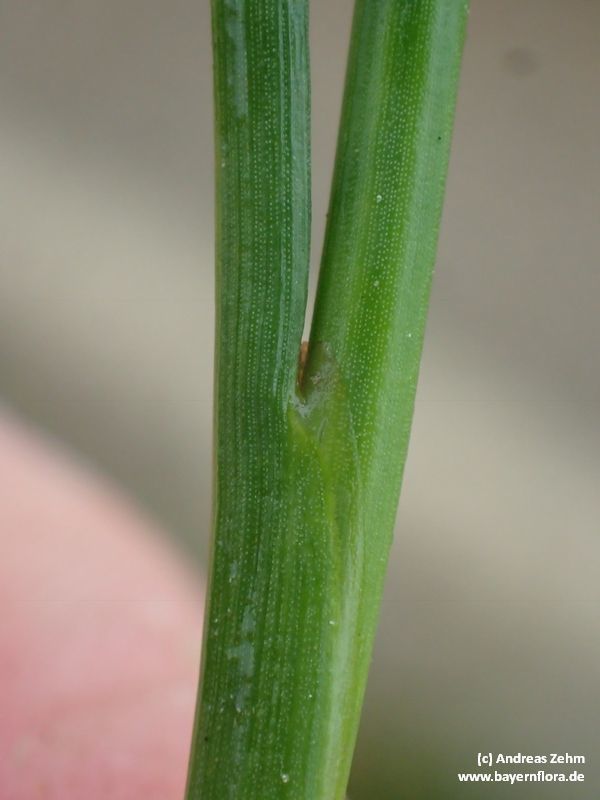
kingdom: Plantae
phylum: Tracheophyta
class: Liliopsida
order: Poales
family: Juncaceae
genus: Juncus
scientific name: Juncus articulatus
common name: Jointed rush
